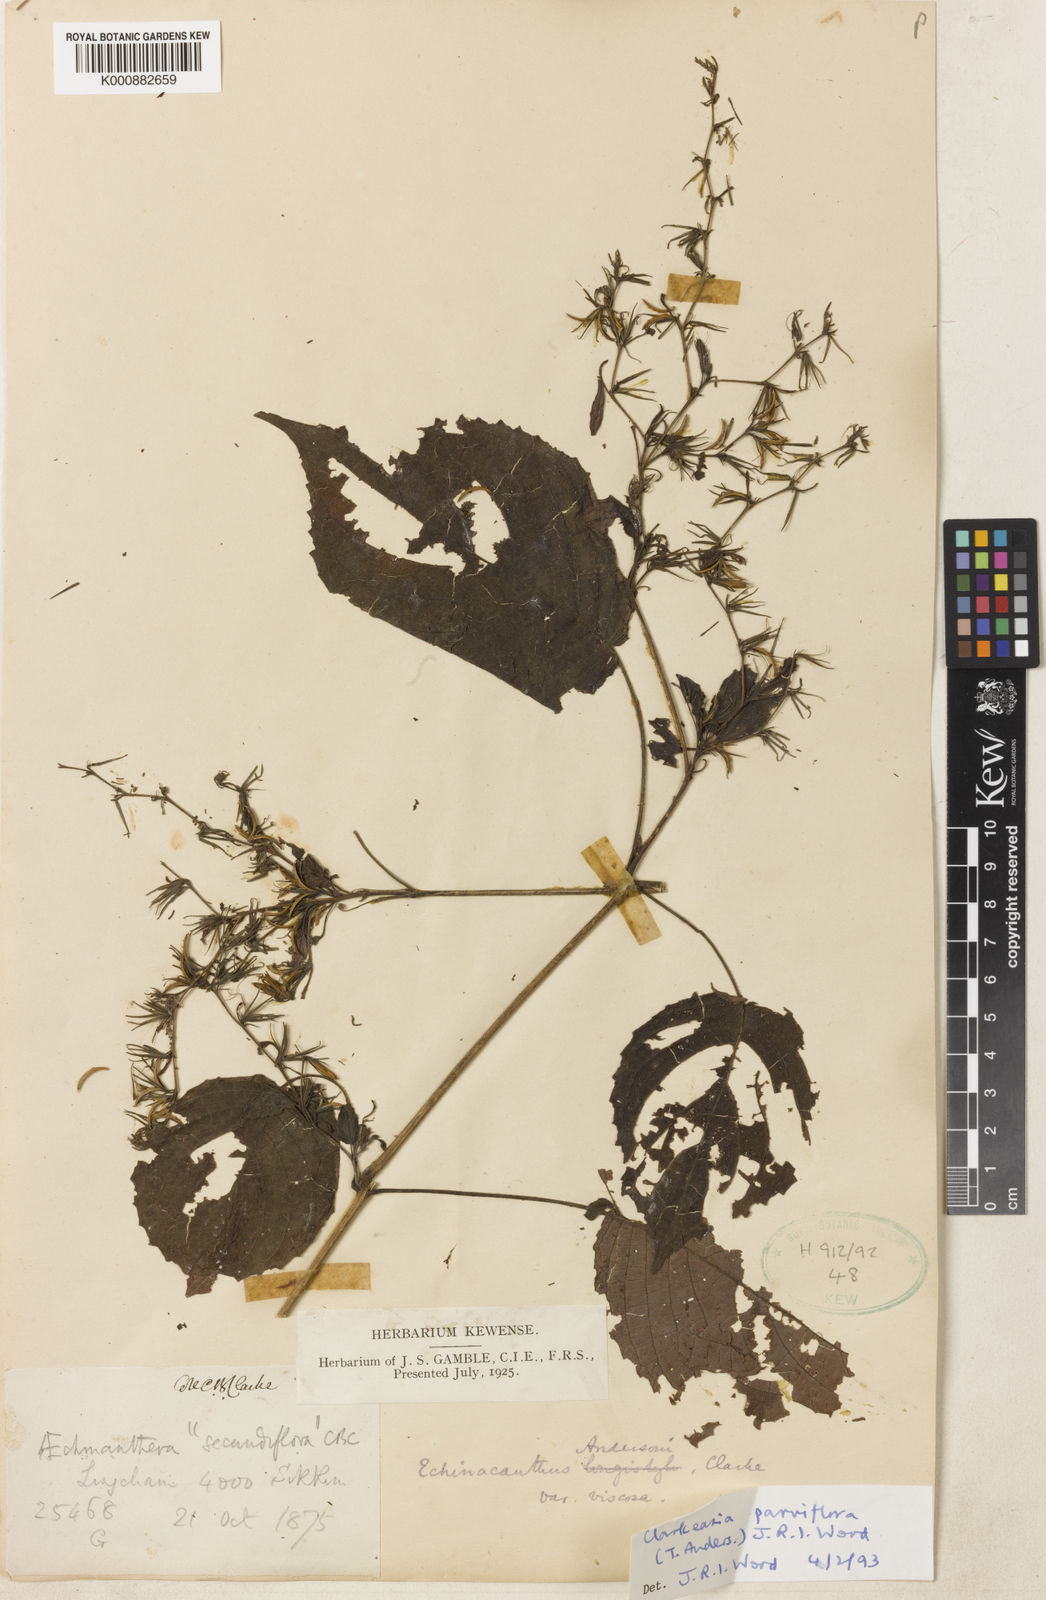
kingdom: Plantae
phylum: Tracheophyta
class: Magnoliopsida
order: Lamiales
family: Acanthaceae
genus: Strobilanthes
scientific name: Strobilanthes violifolia
